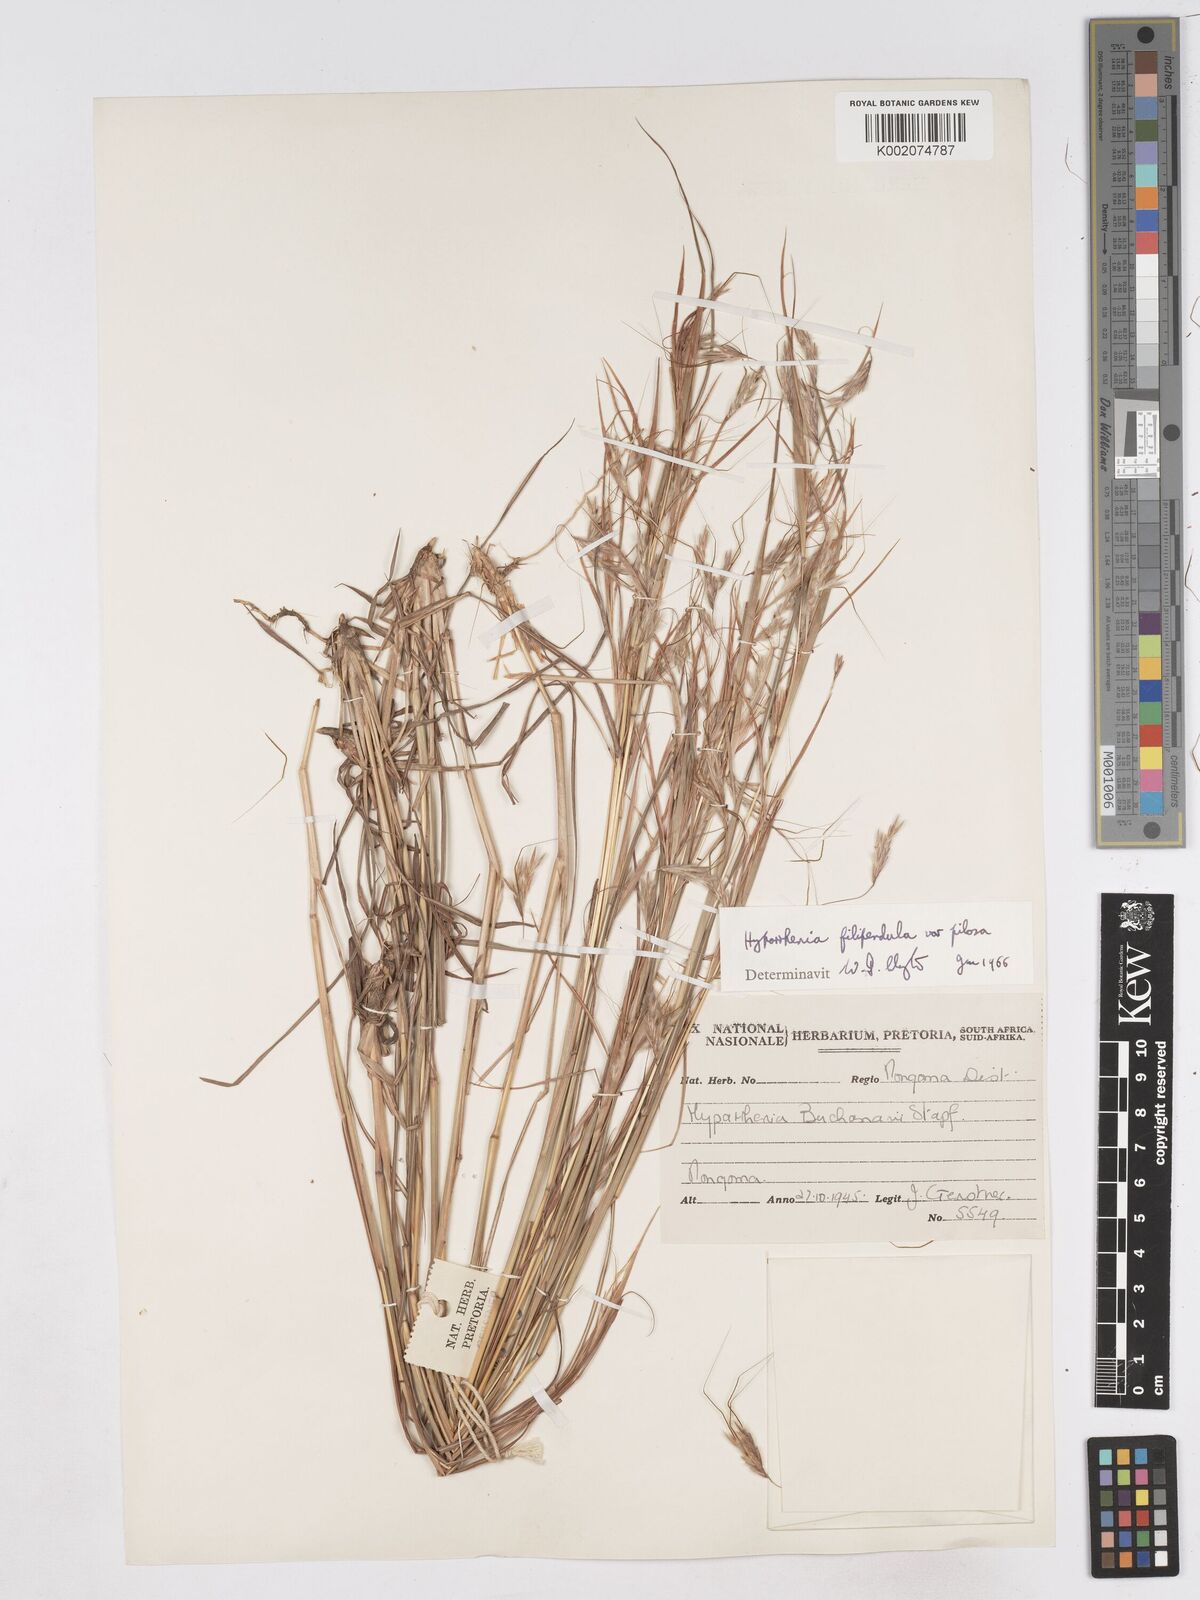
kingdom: Plantae
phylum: Tracheophyta
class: Liliopsida
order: Poales
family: Poaceae
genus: Hyparrhenia
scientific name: Hyparrhenia filipendula
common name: Tambookie grass
